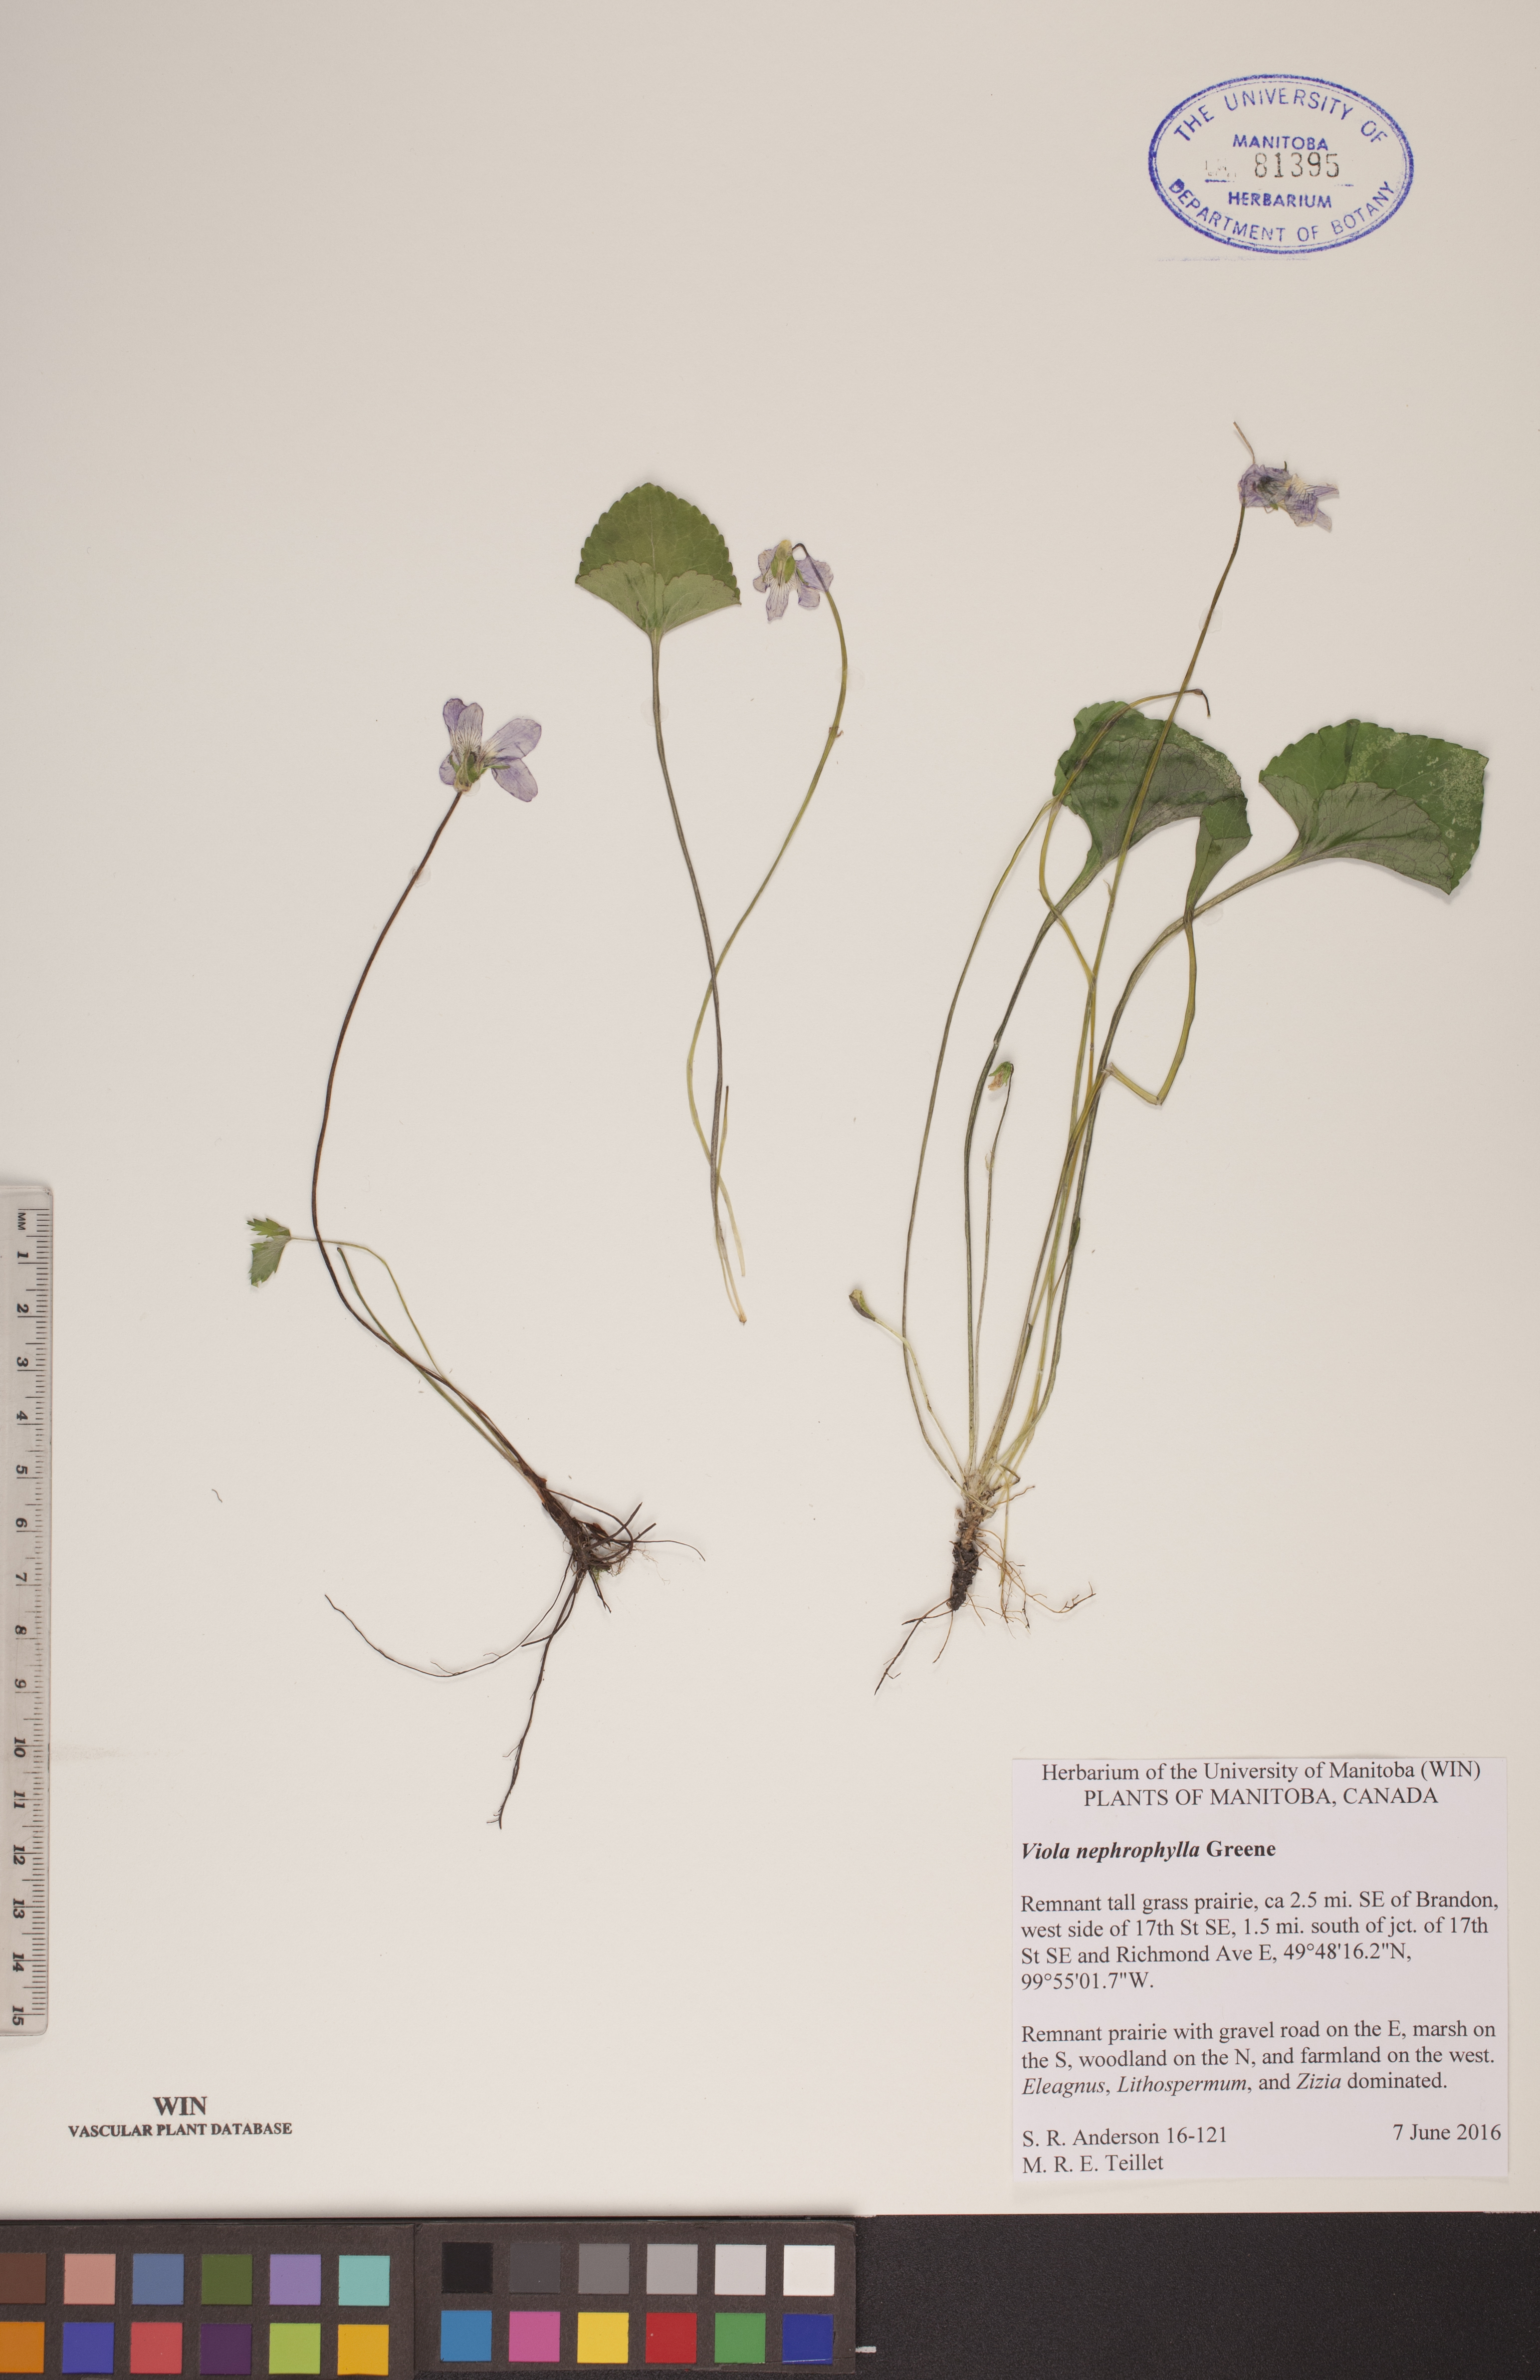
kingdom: Plantae
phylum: Tracheophyta
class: Magnoliopsida
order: Malpighiales
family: Violaceae
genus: Viola
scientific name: Viola nephrophylla
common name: Blue meadow violet
